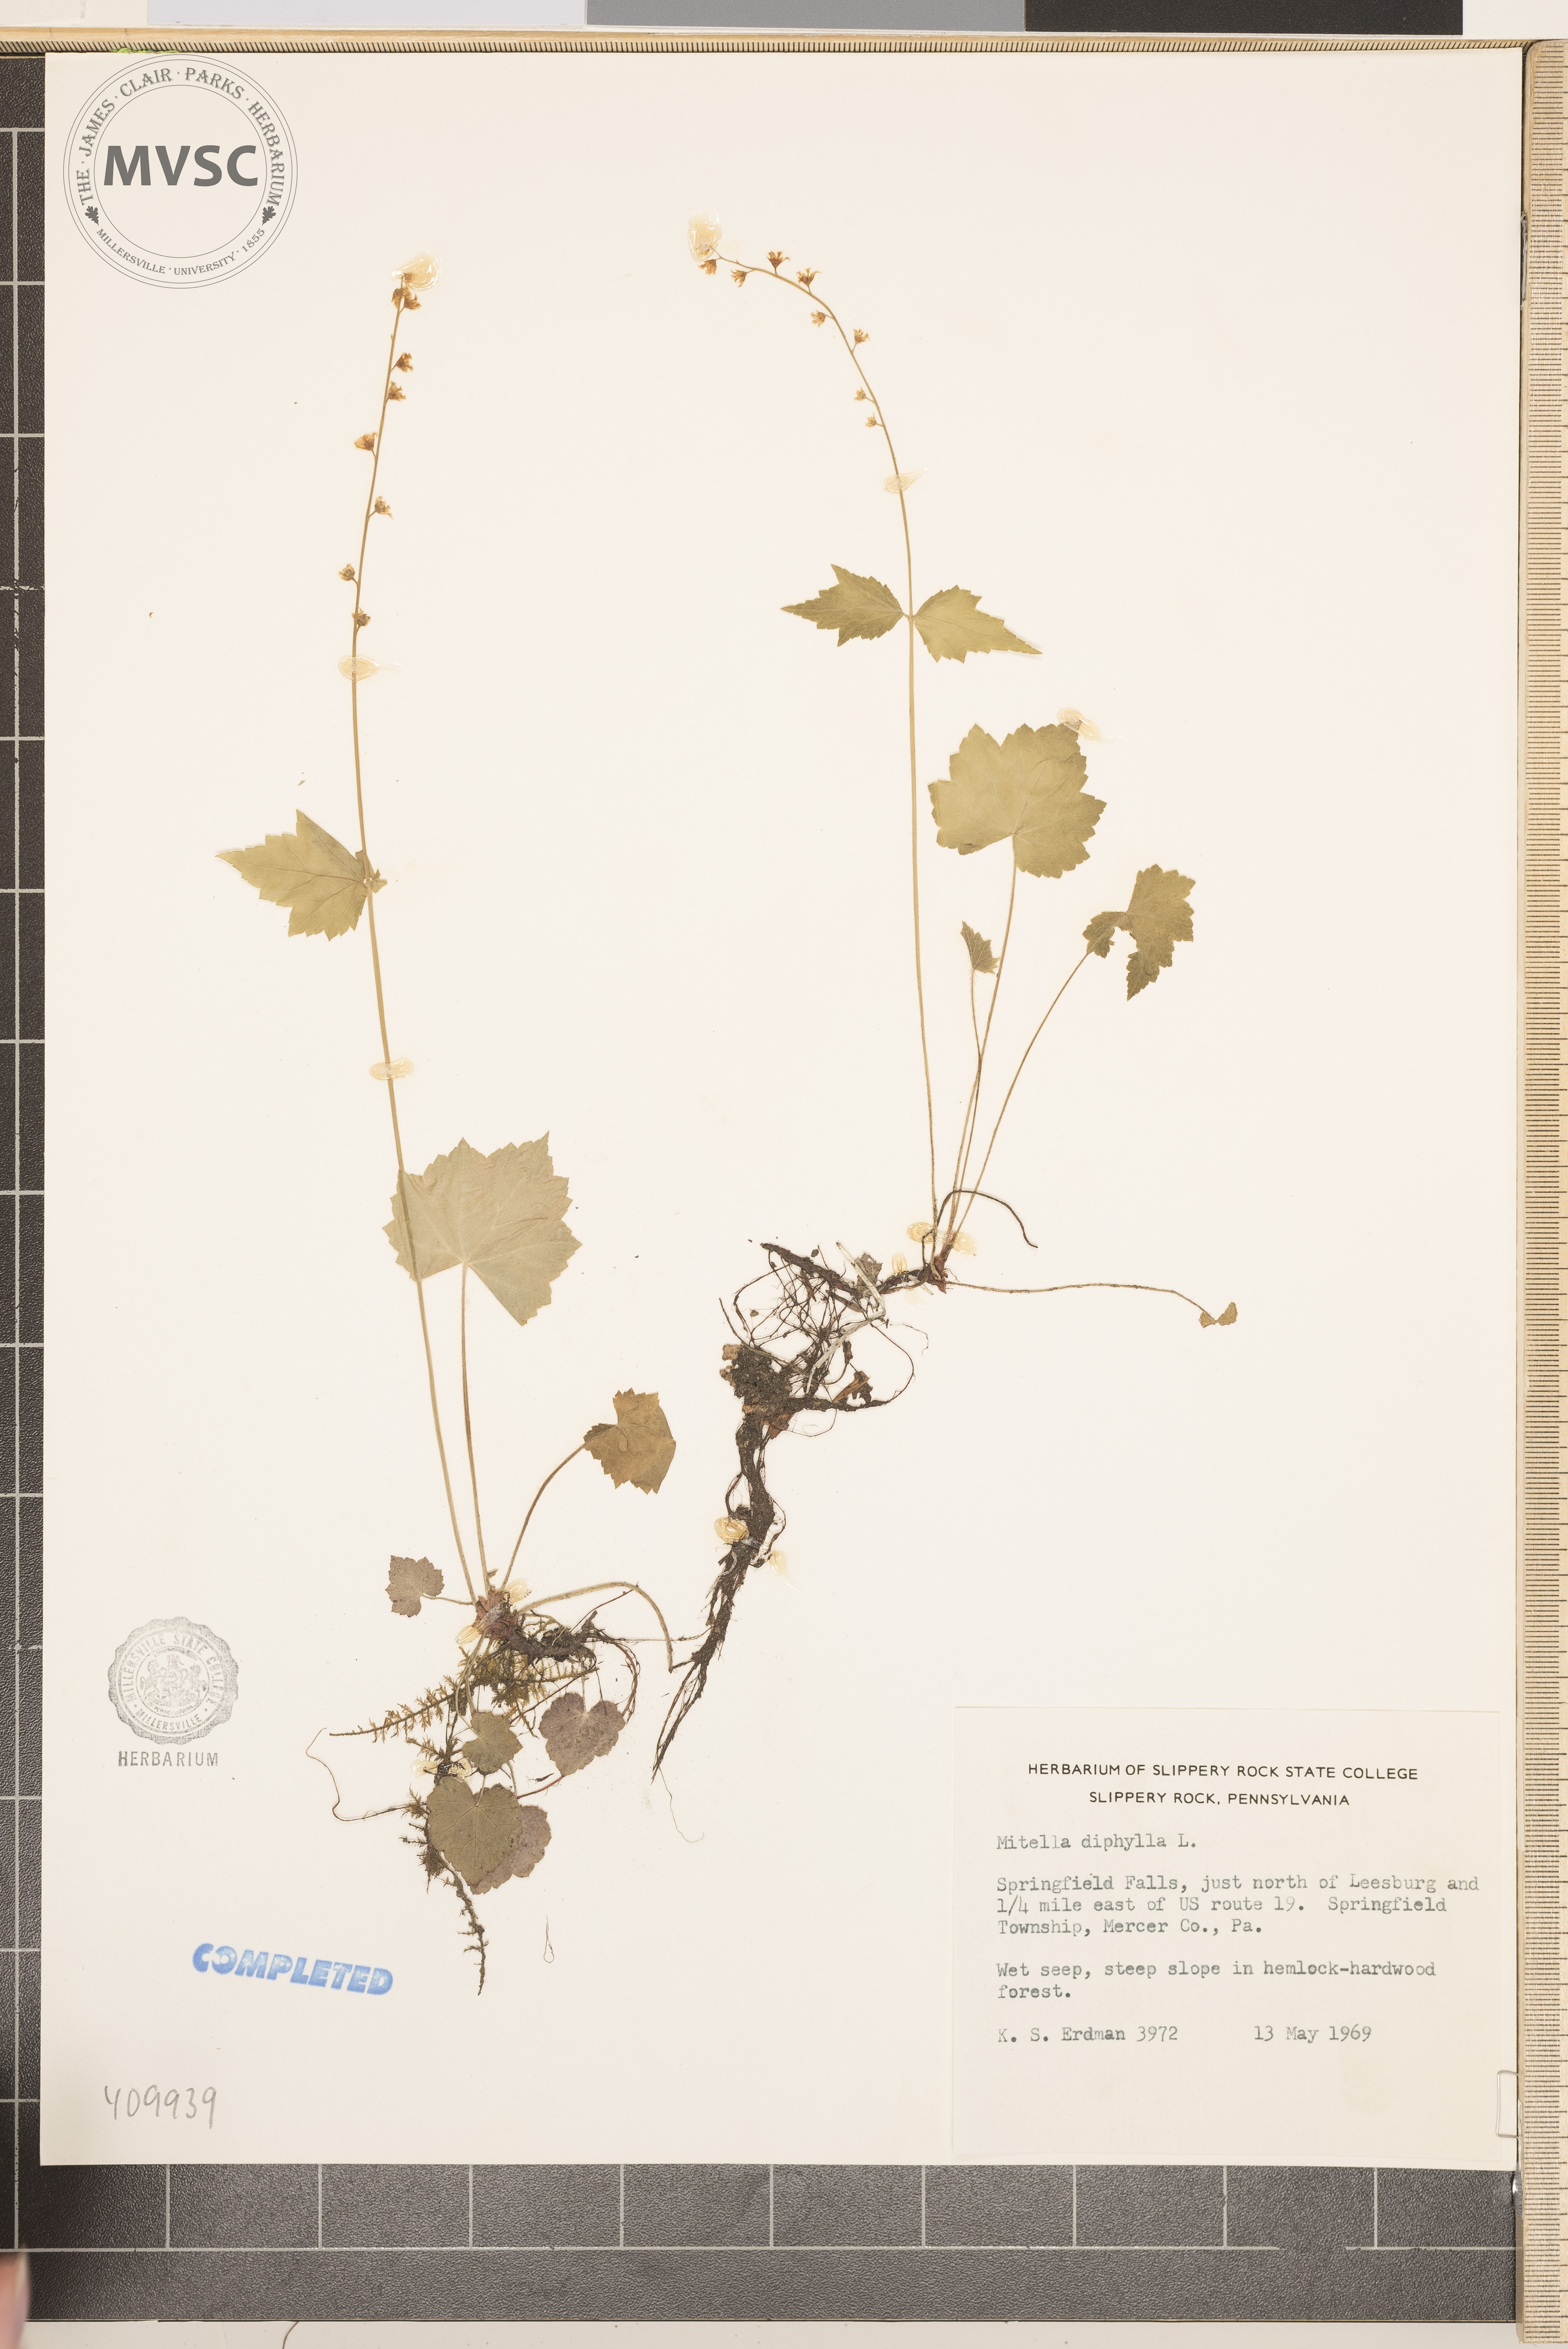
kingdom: Plantae
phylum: Tracheophyta
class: Magnoliopsida
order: Saxifragales
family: Saxifragaceae
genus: Mitella
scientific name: Mitella diphylla
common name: Coolwort
